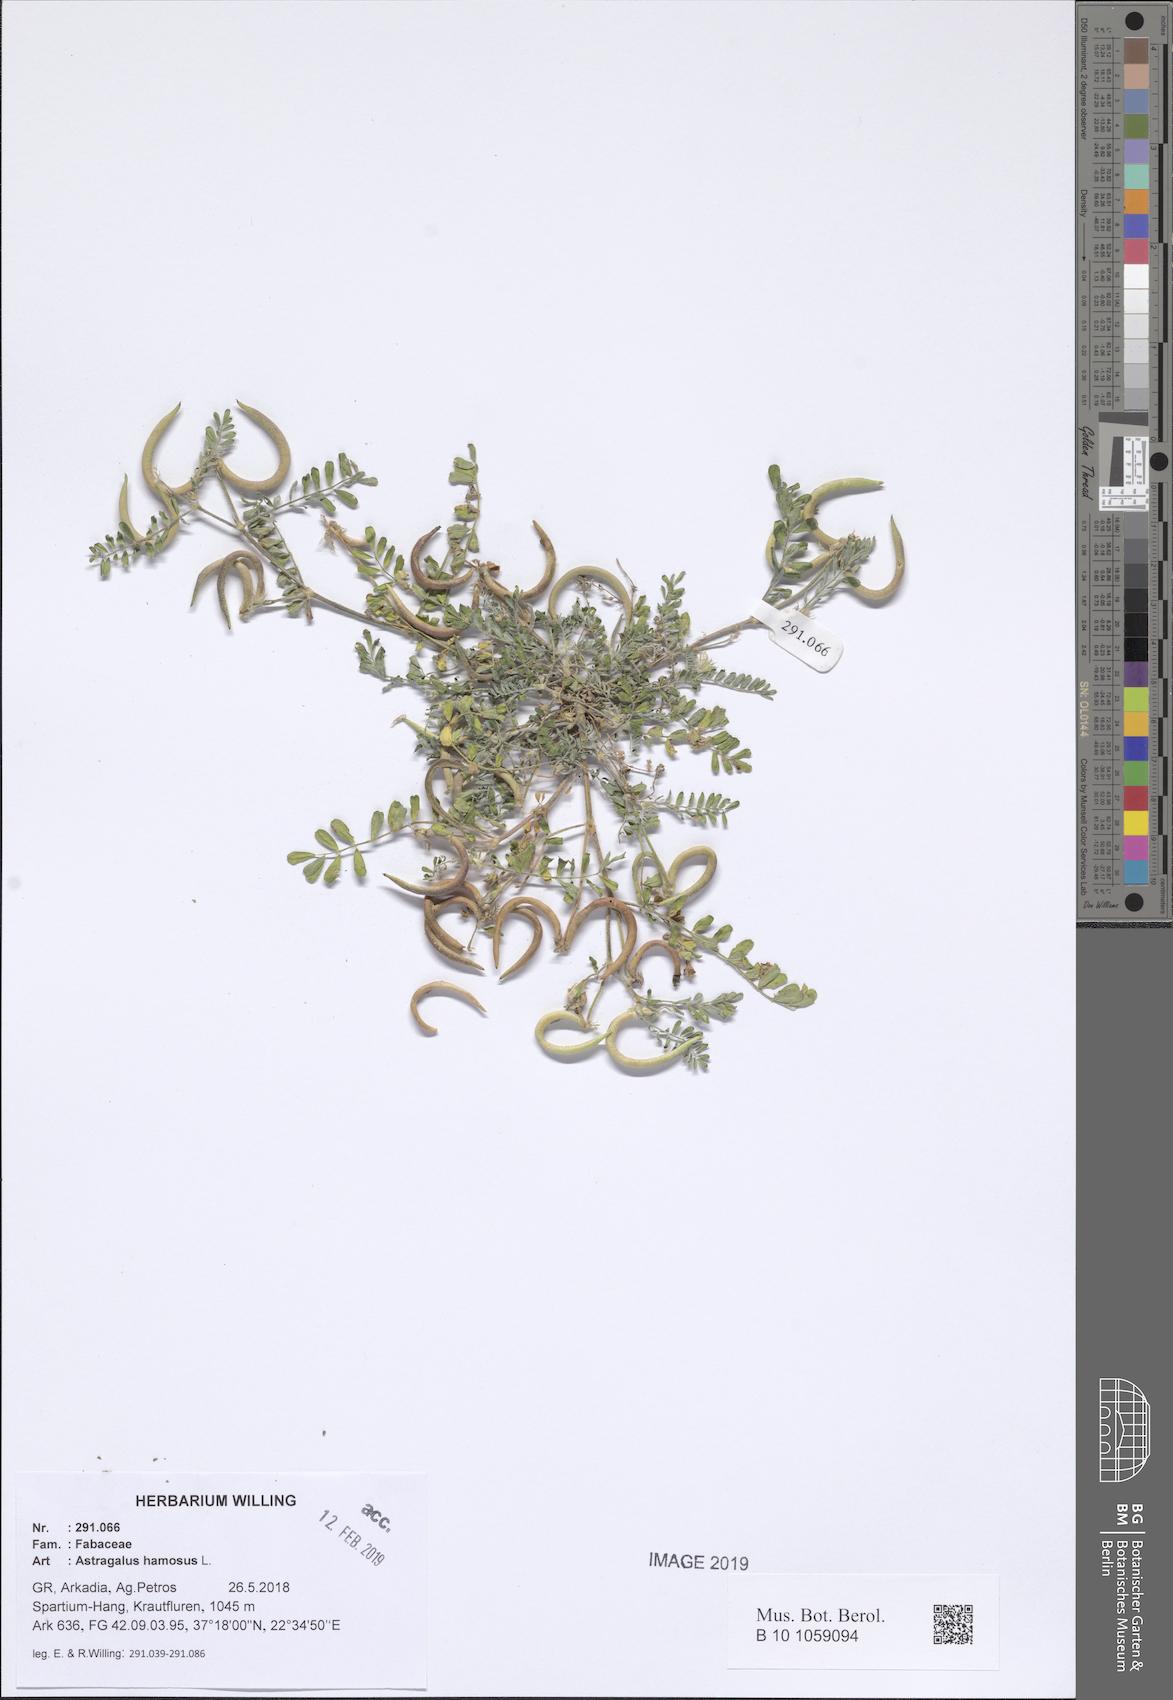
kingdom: Plantae
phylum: Tracheophyta
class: Magnoliopsida
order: Fabales
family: Fabaceae
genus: Astragalus
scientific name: Astragalus hamosus
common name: European milkvetch
